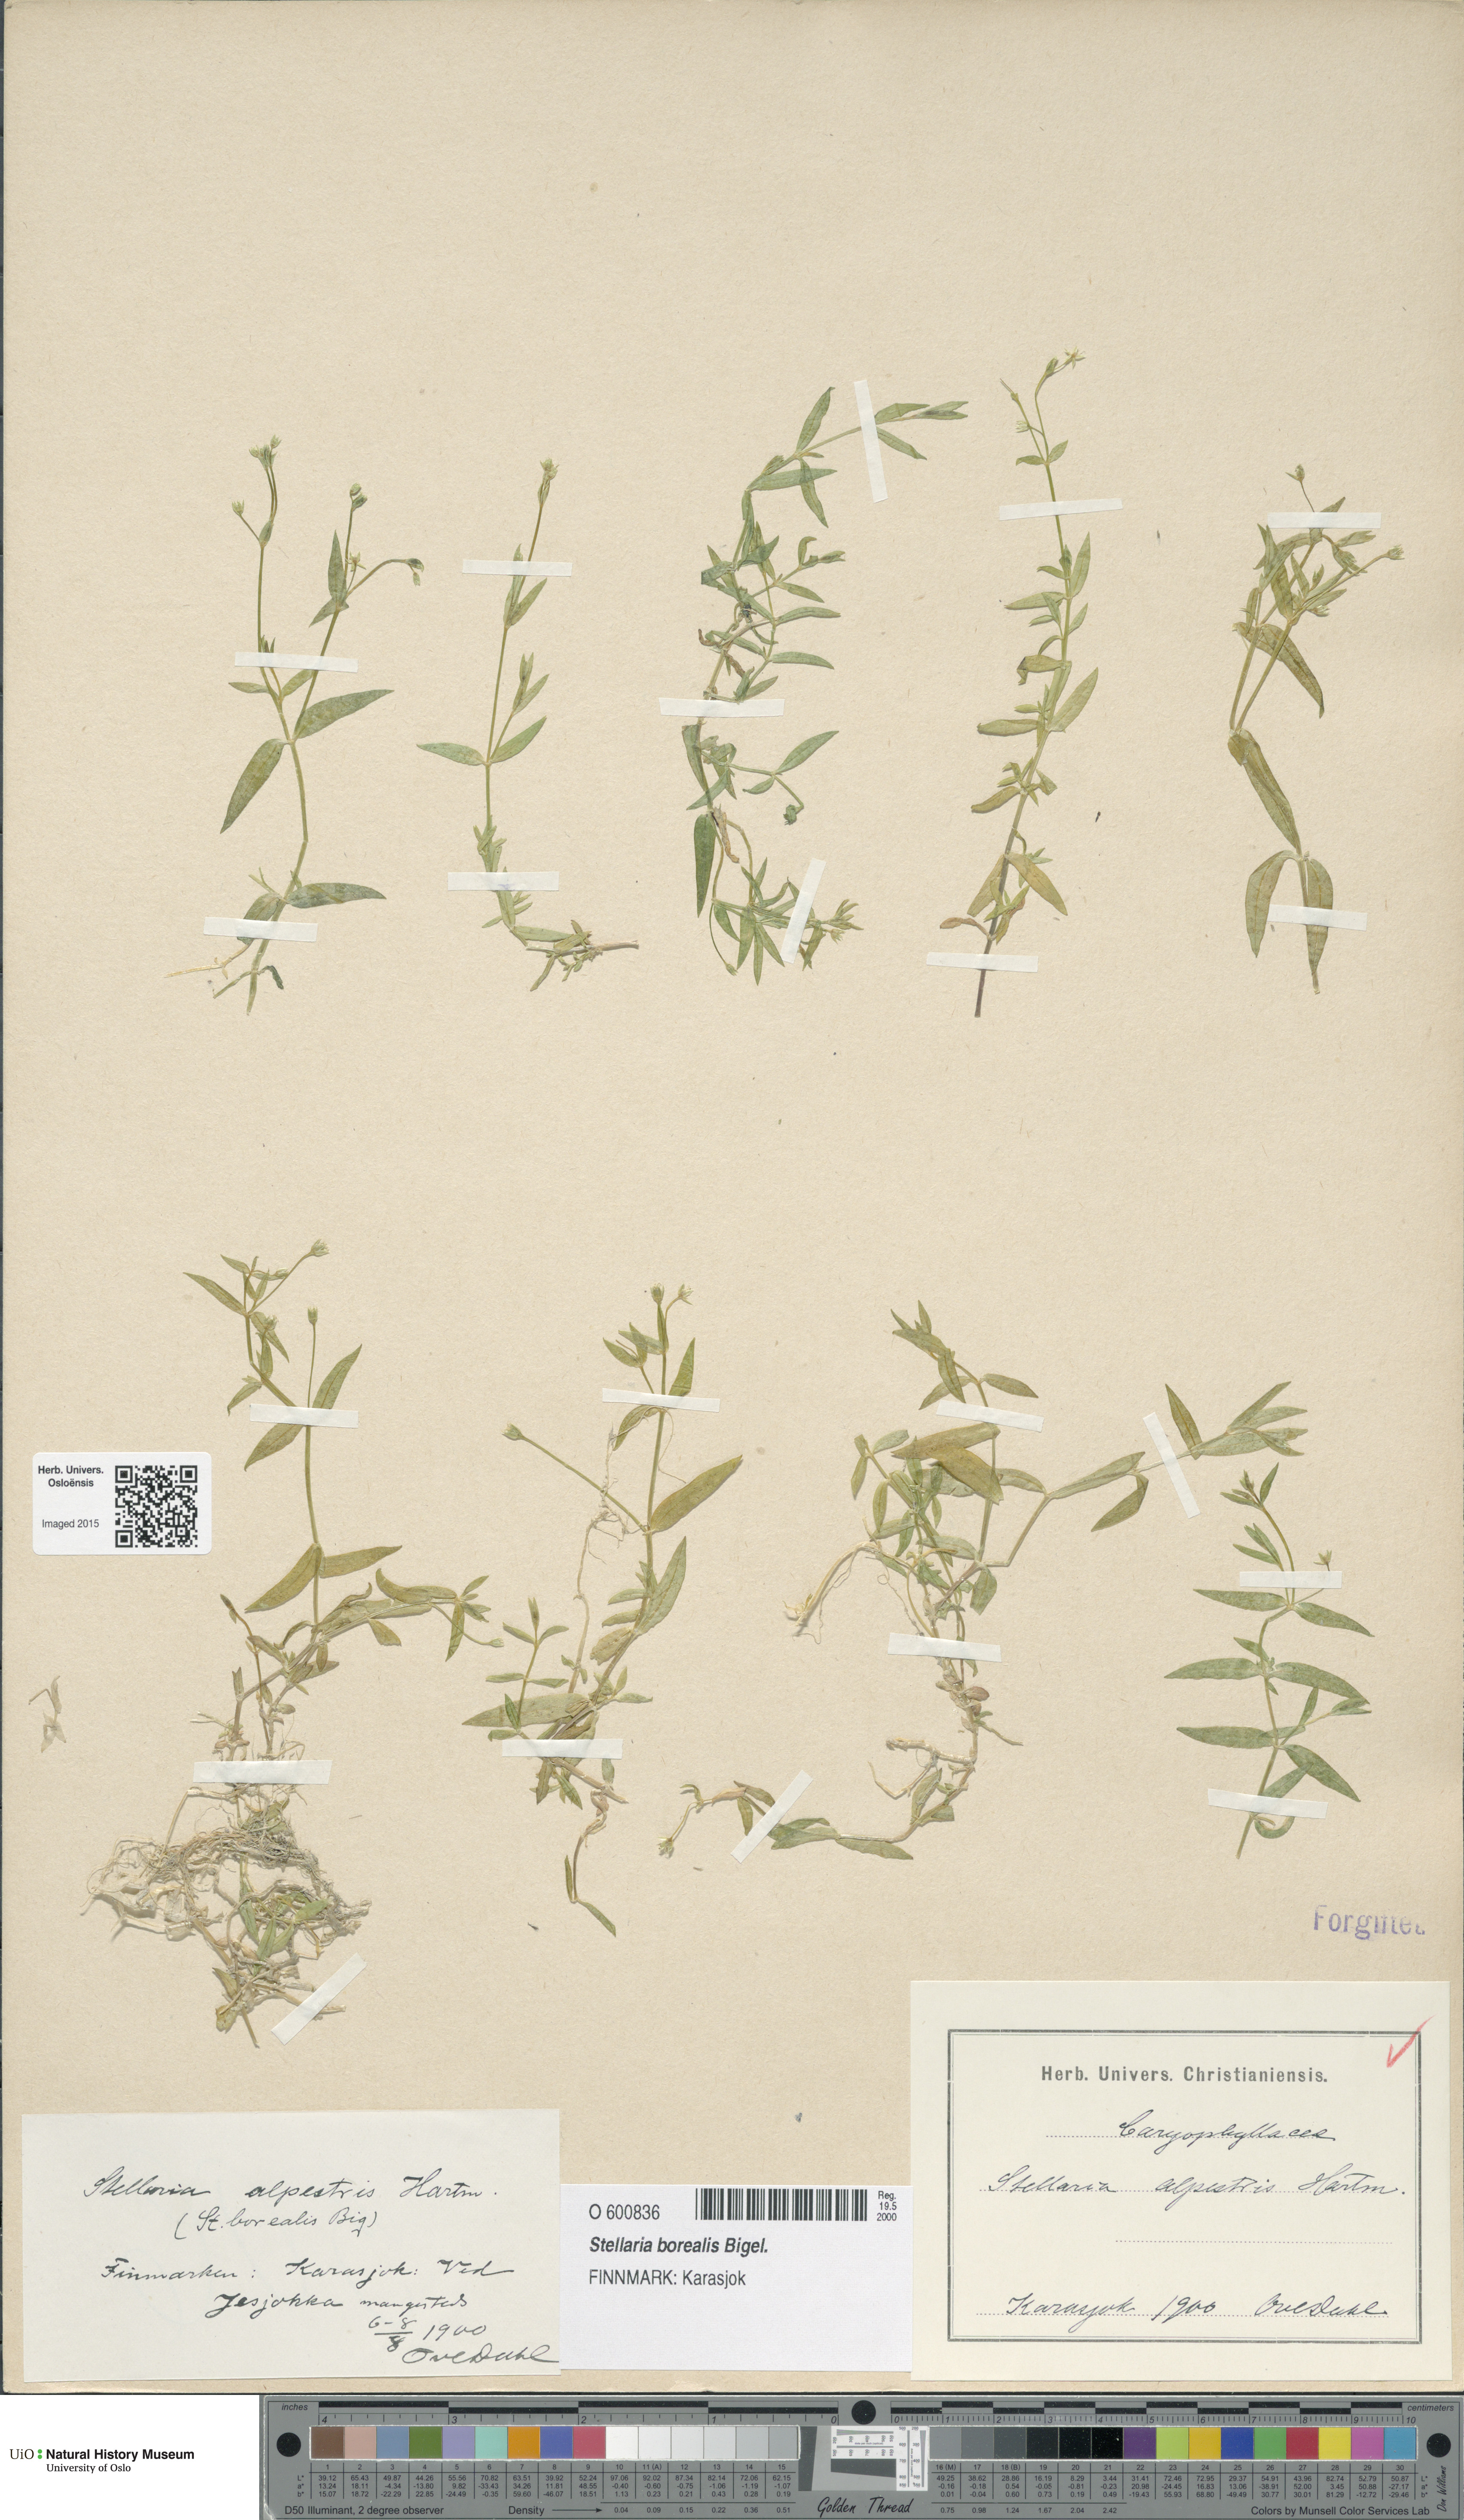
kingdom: Plantae
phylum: Tracheophyta
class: Magnoliopsida
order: Caryophyllales
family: Caryophyllaceae
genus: Stellaria
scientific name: Stellaria alpestris
